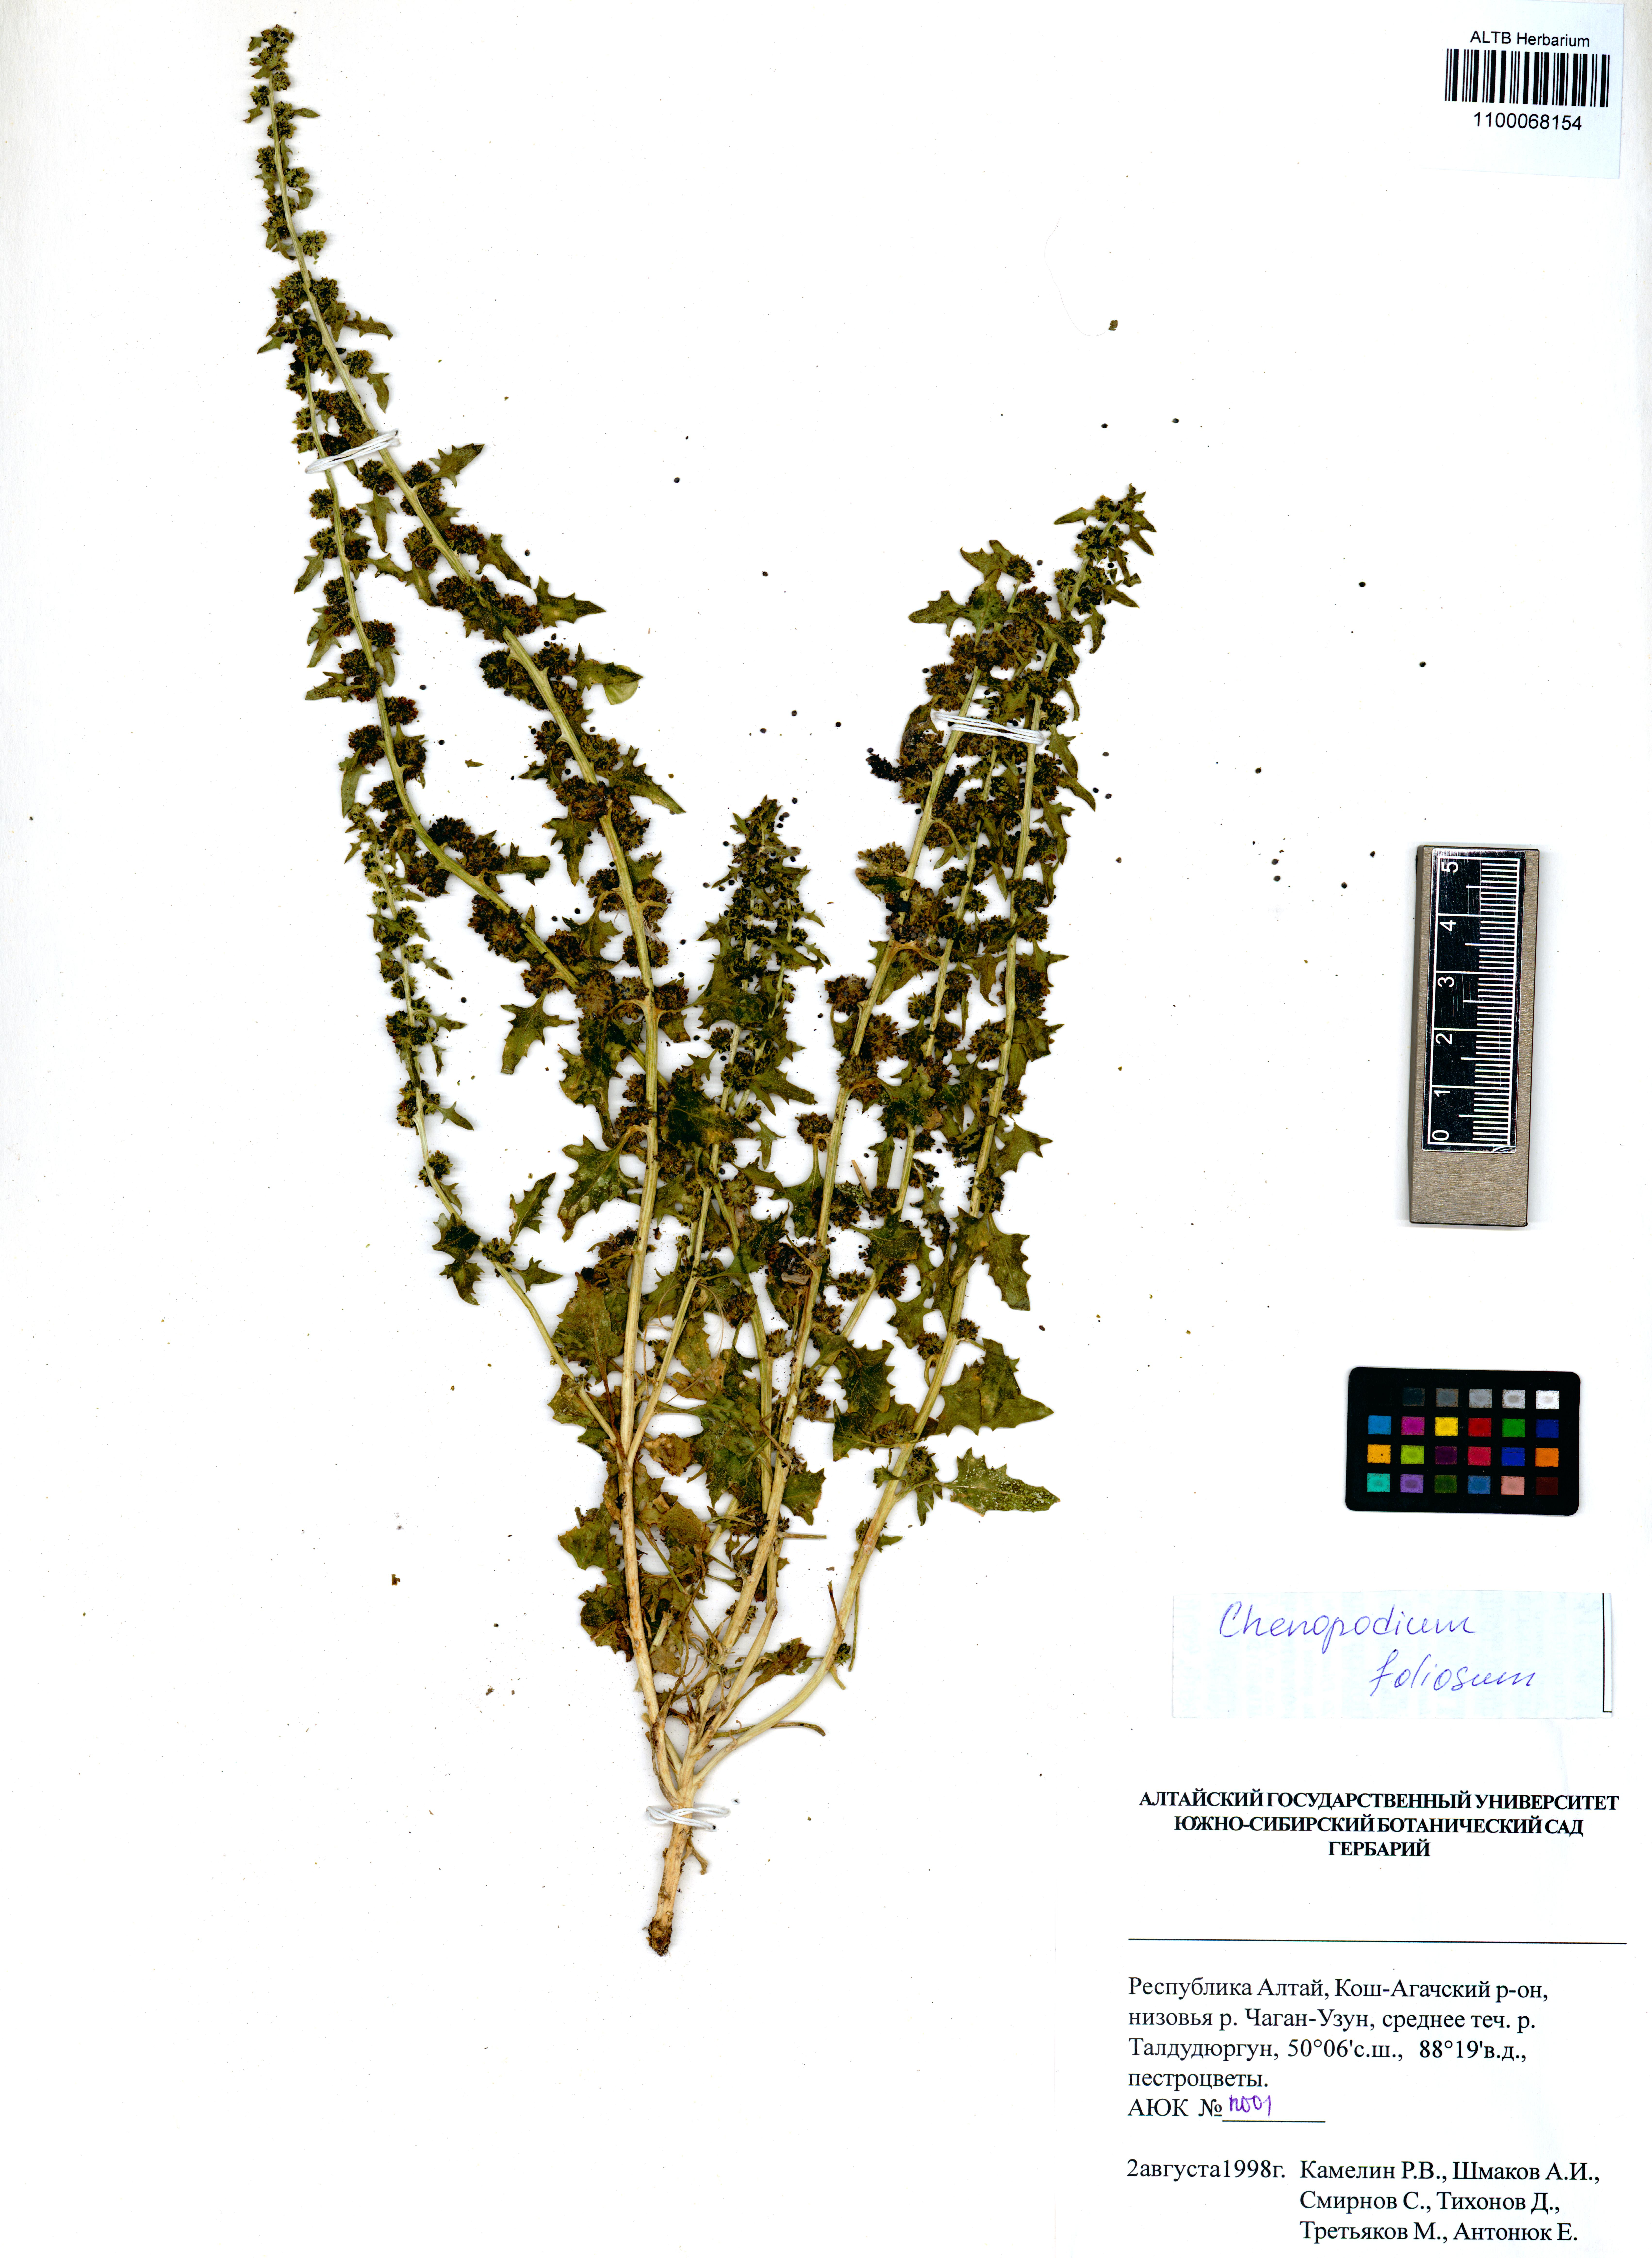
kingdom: Plantae
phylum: Tracheophyta
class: Magnoliopsida
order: Caryophyllales
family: Amaranthaceae
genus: Blitum
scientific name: Blitum virgatum
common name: Strawberry goosefoot
